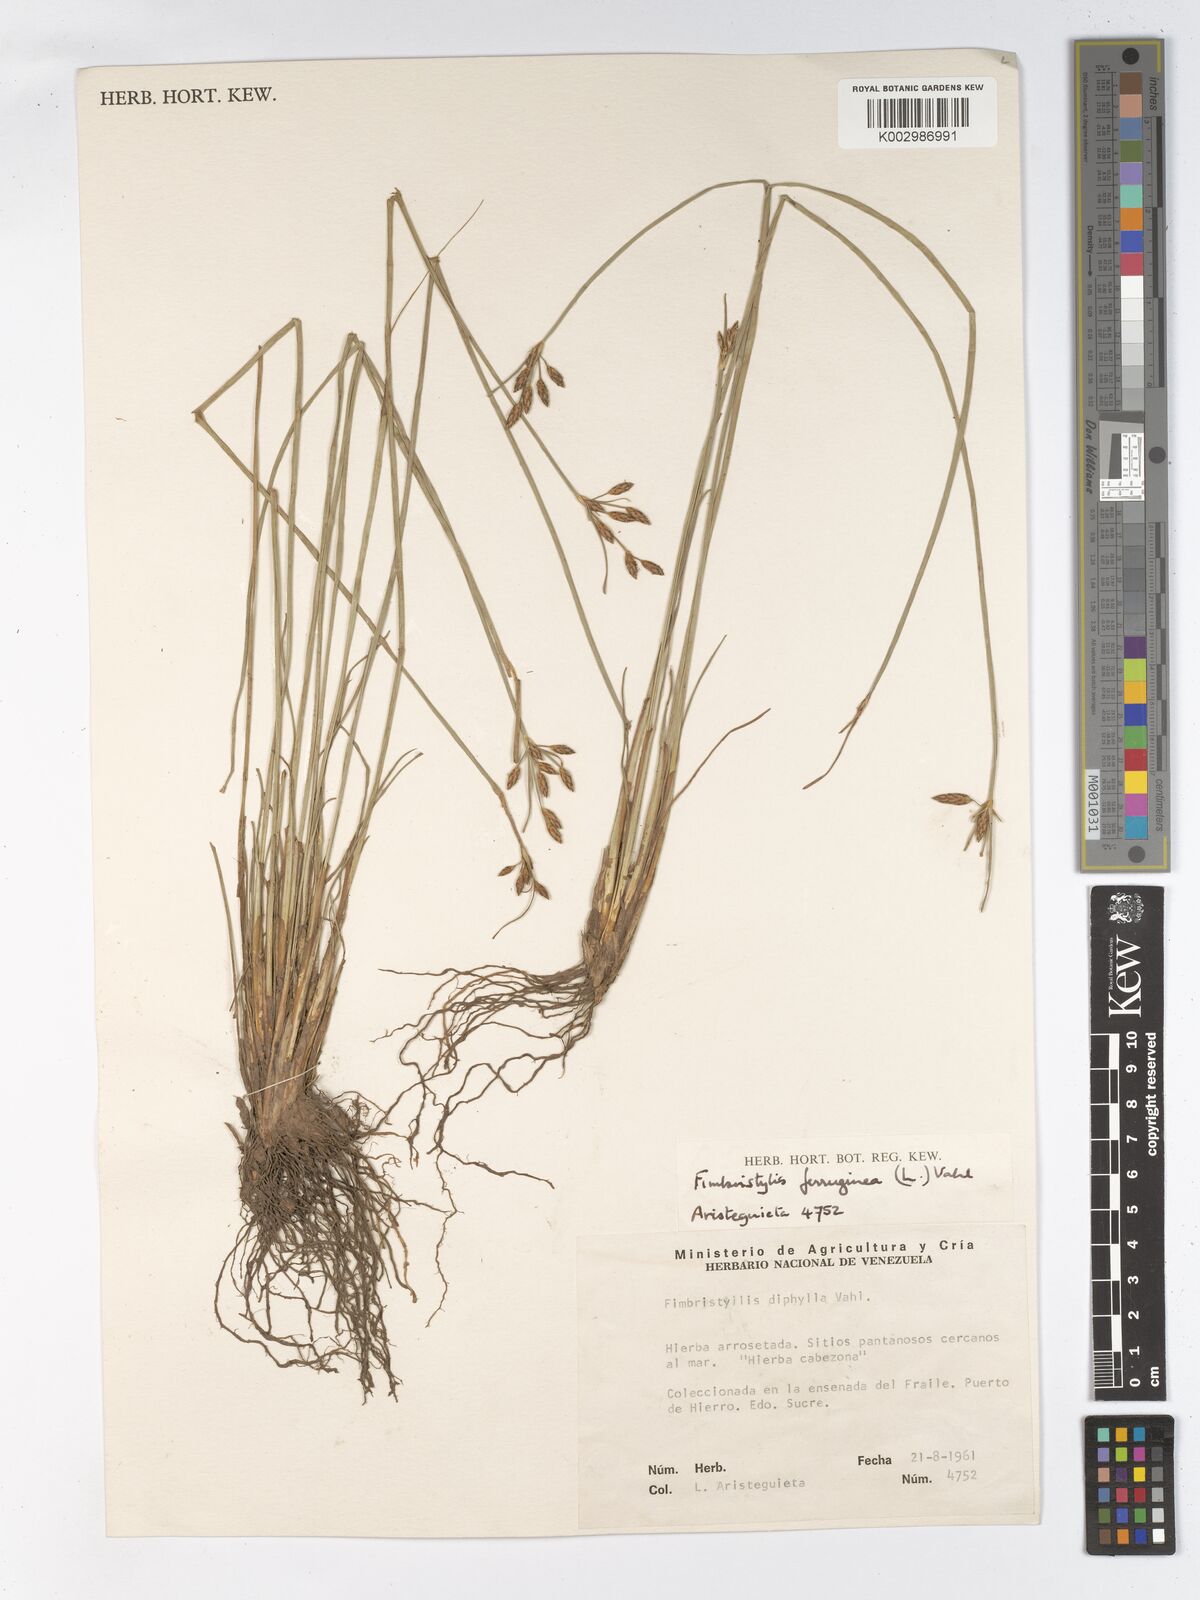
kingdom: Plantae
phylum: Tracheophyta
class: Liliopsida
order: Poales
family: Cyperaceae
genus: Fimbristylis
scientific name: Fimbristylis ferruginea
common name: West indian fimbry
